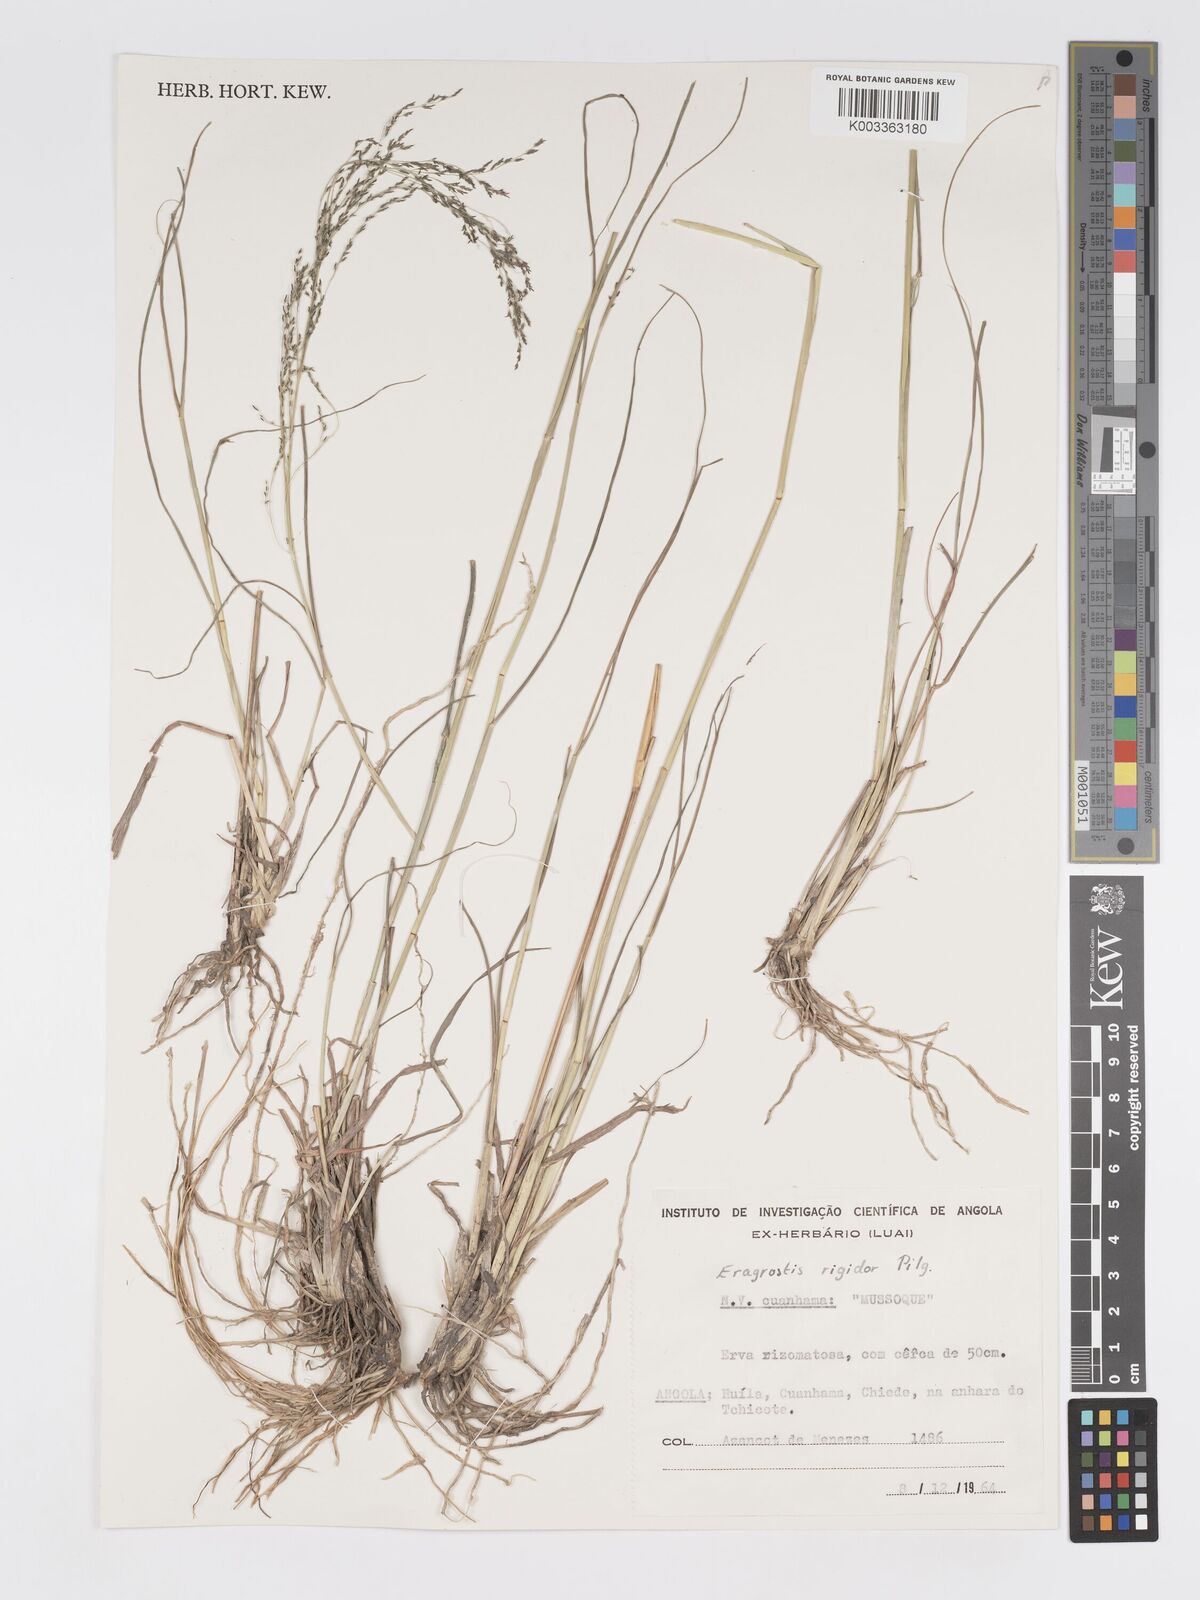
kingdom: Plantae
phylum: Tracheophyta
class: Liliopsida
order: Poales
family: Poaceae
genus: Eragrostis
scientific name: Eragrostis cylindriflora
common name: Cylinderflower lovegrass
